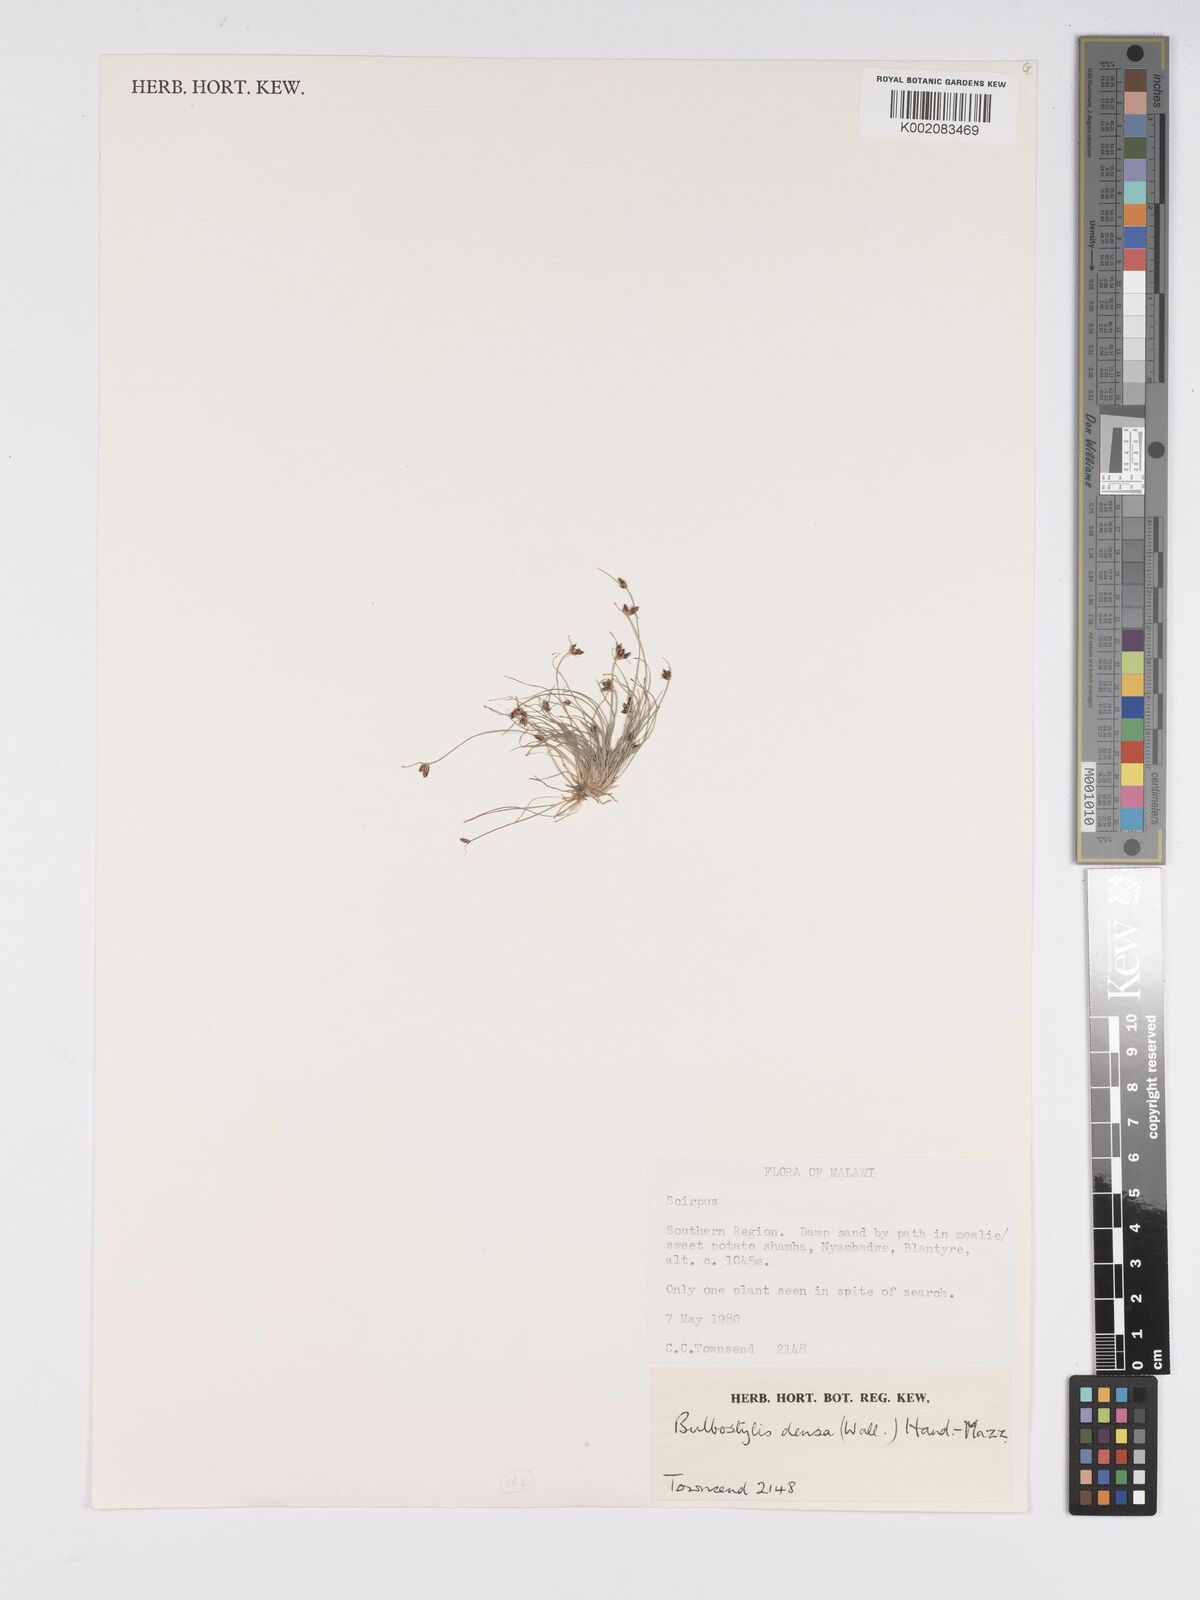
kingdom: Plantae
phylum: Tracheophyta
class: Liliopsida
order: Poales
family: Cyperaceae
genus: Bulbostylis
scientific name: Bulbostylis capillaris
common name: Densetuft hairsedge
